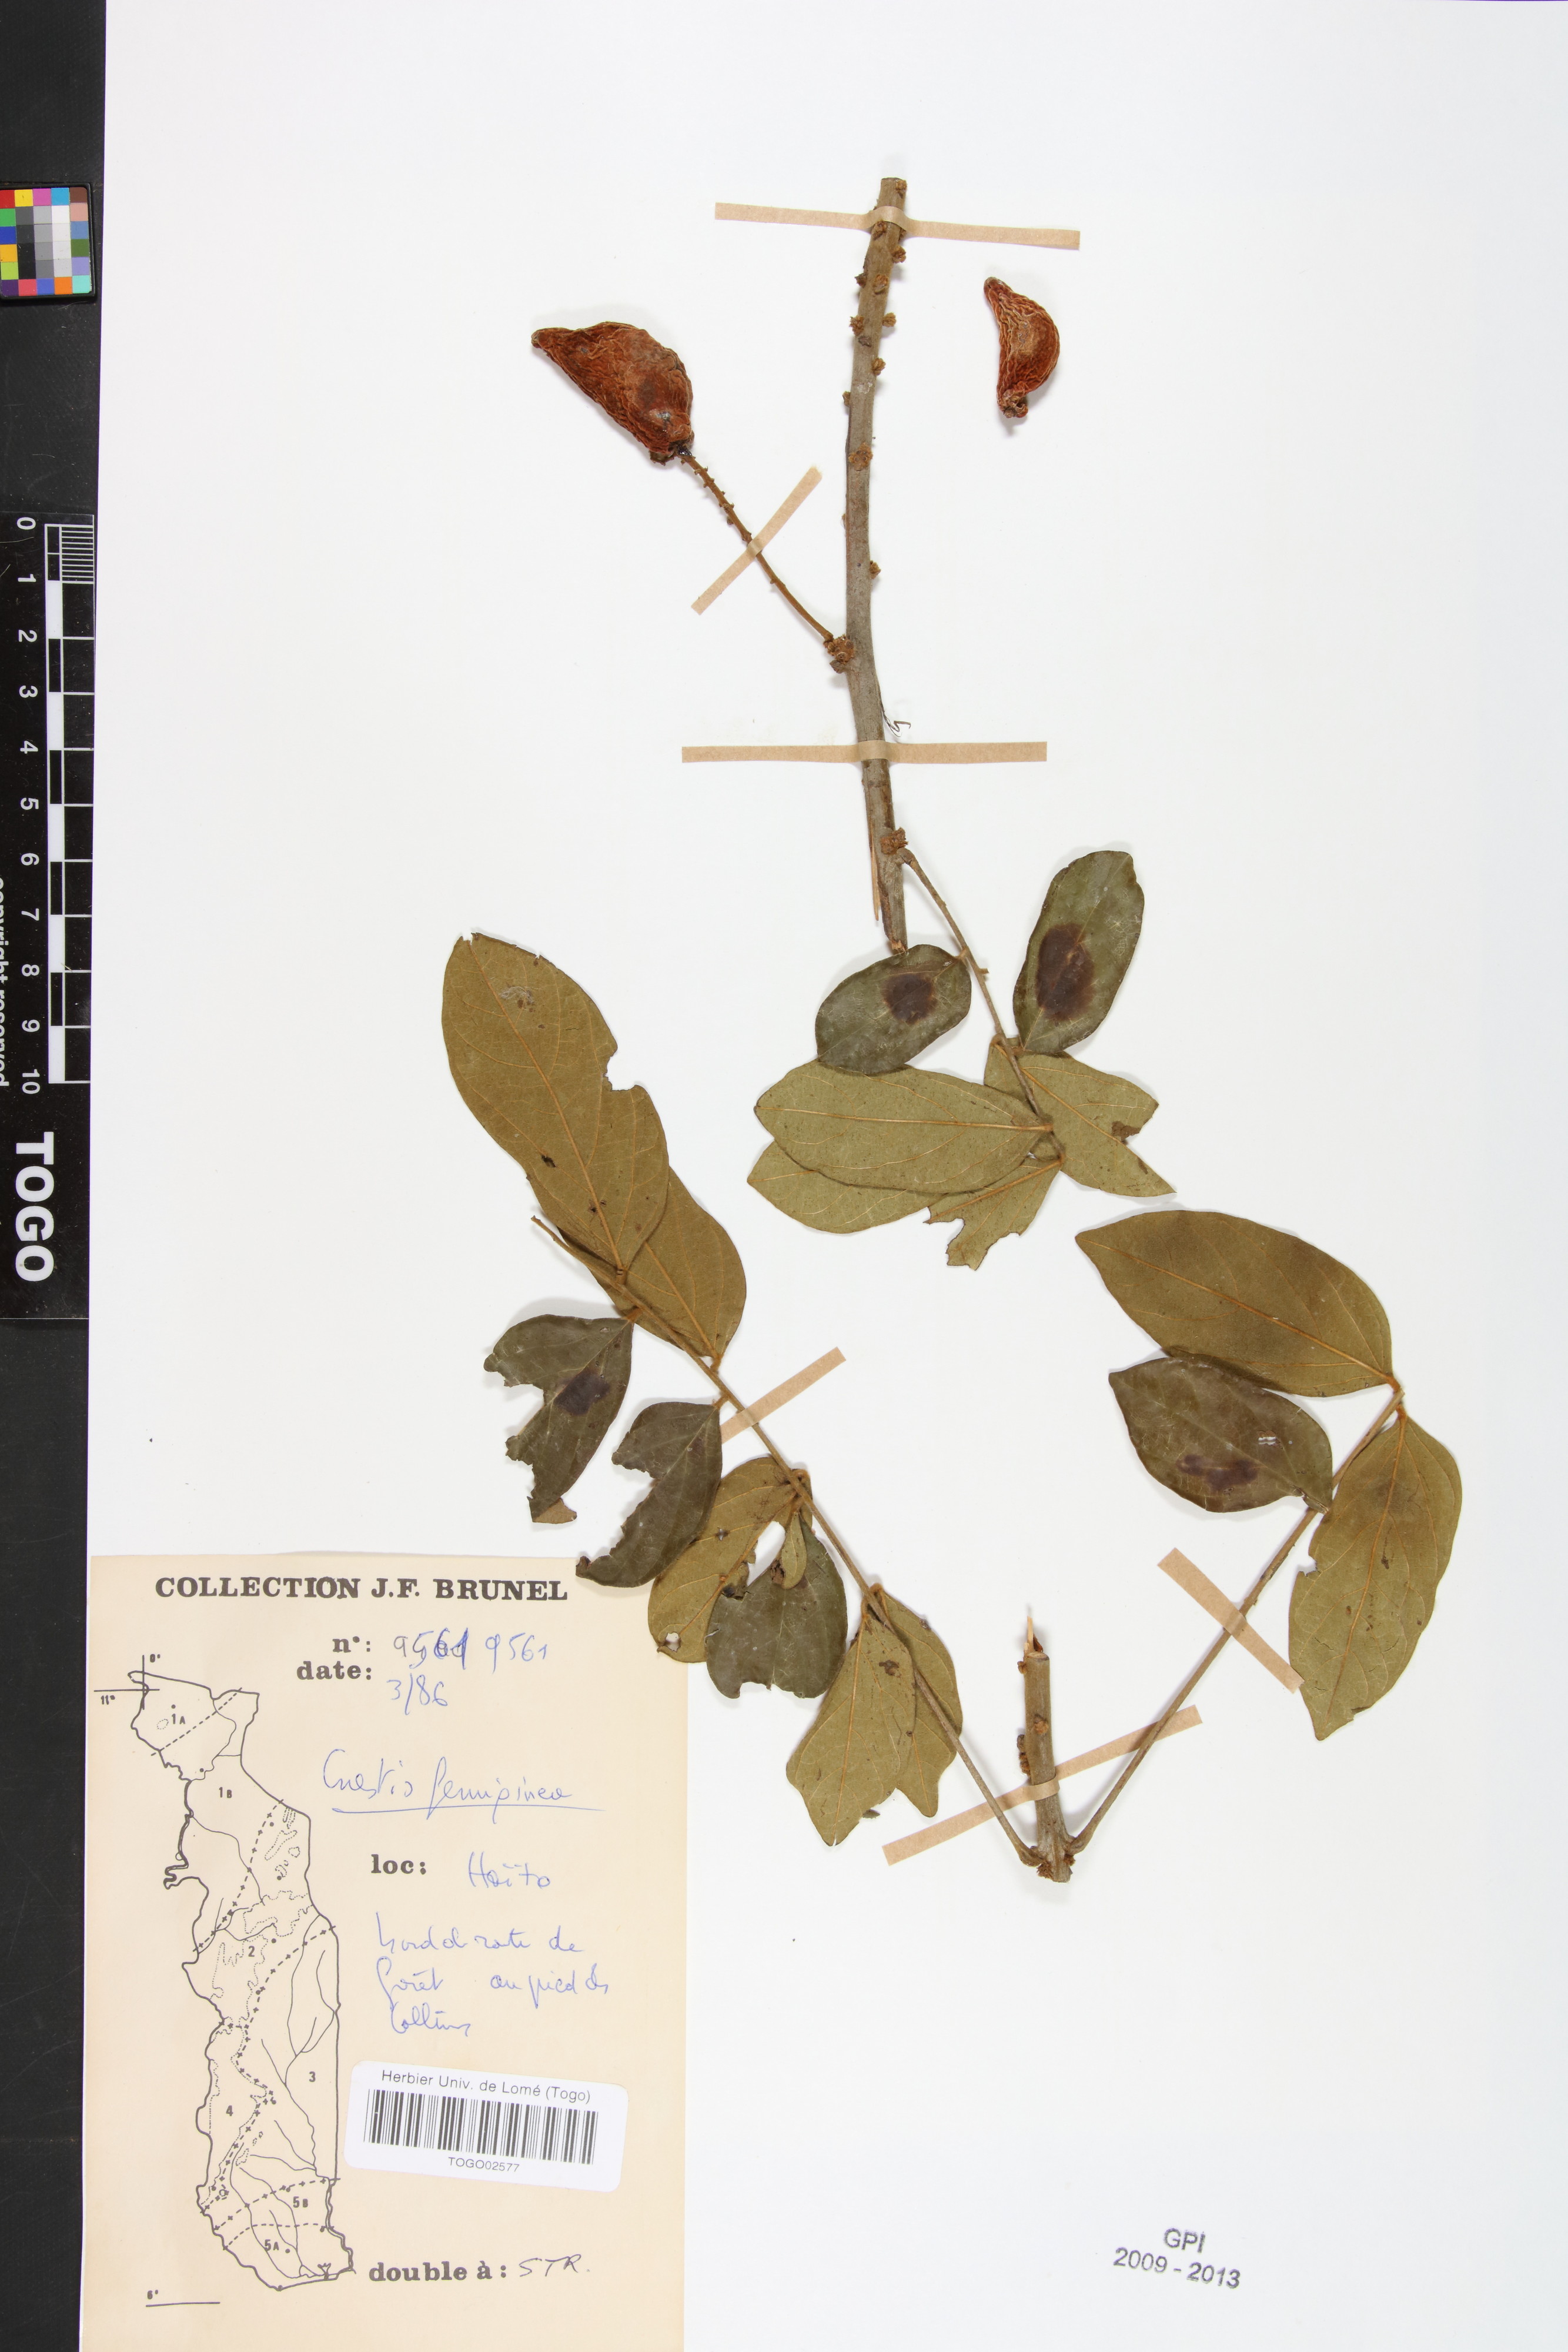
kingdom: Plantae
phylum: Tracheophyta
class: Magnoliopsida
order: Oxalidales
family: Connaraceae
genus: Cnestis
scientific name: Cnestis ferruginea
